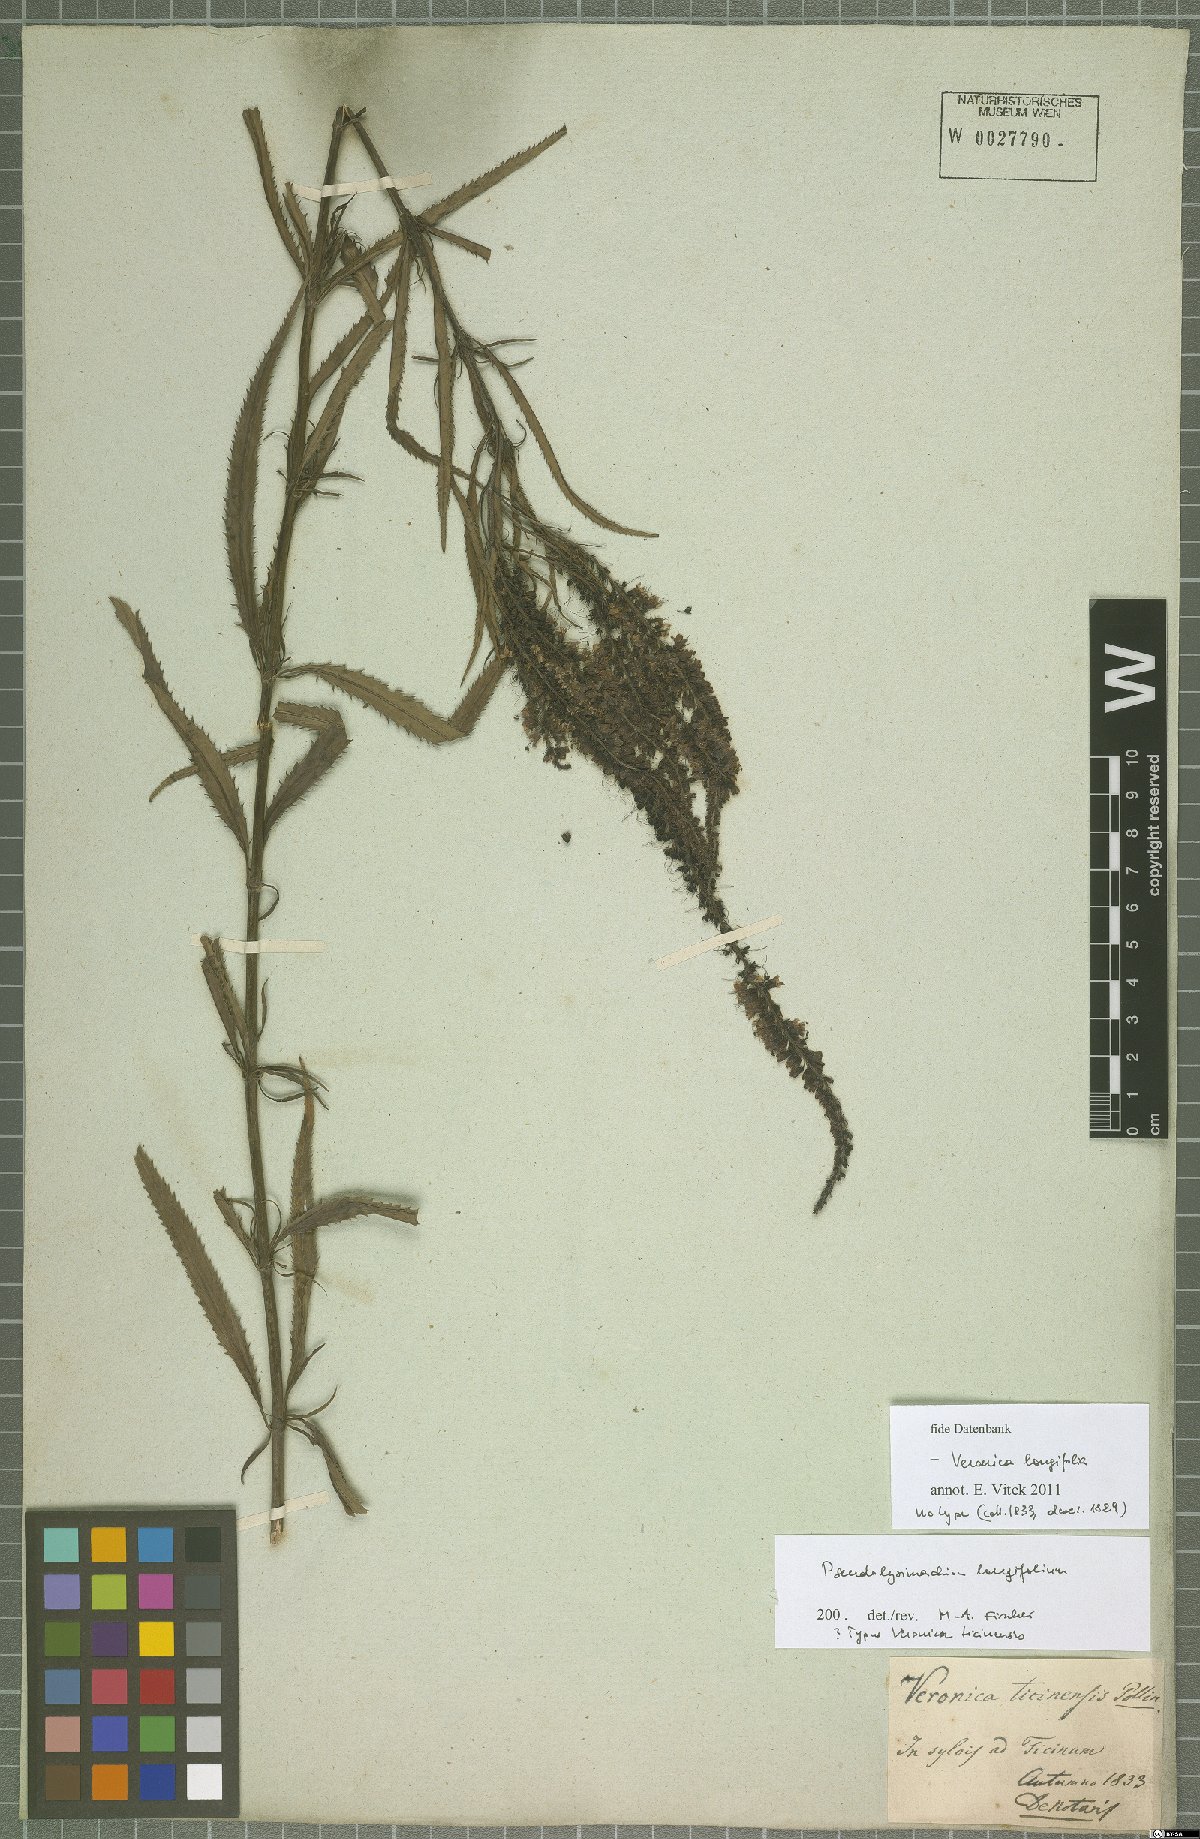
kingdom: Plantae
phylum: Tracheophyta
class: Magnoliopsida
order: Lamiales
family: Plantaginaceae
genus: Veronica
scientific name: Veronica longifolia
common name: Garden speedwell
